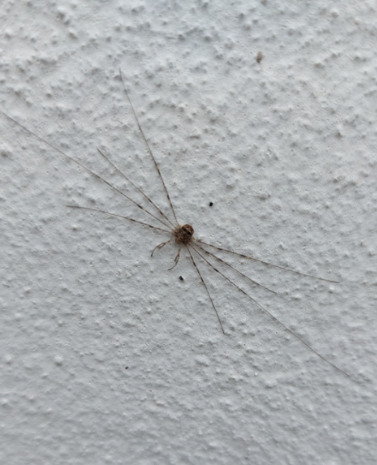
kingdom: Animalia
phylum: Arthropoda
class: Arachnida
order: Opiliones
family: Phalangiidae
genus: Dicranopalpus
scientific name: Dicranopalpus ramosus
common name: Gaffelmejer
